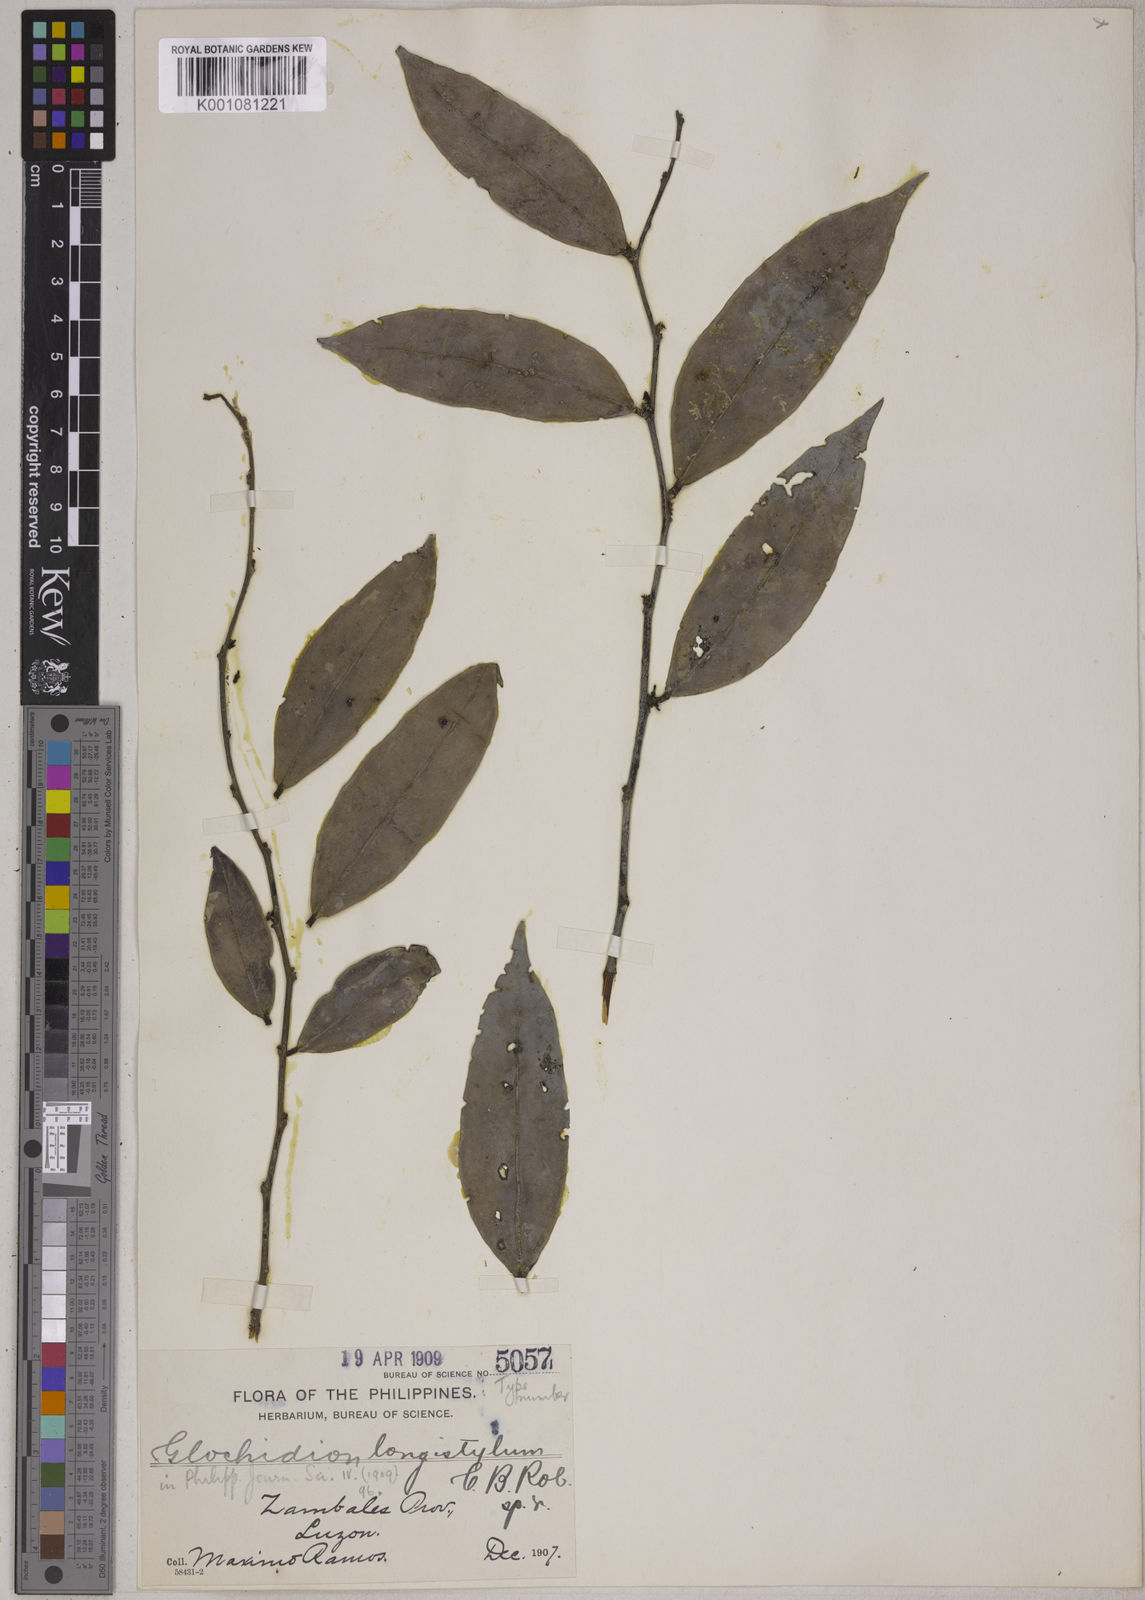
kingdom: Plantae
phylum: Tracheophyta
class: Magnoliopsida
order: Malpighiales
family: Phyllanthaceae
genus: Glochidion
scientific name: Glochidion longistylum
